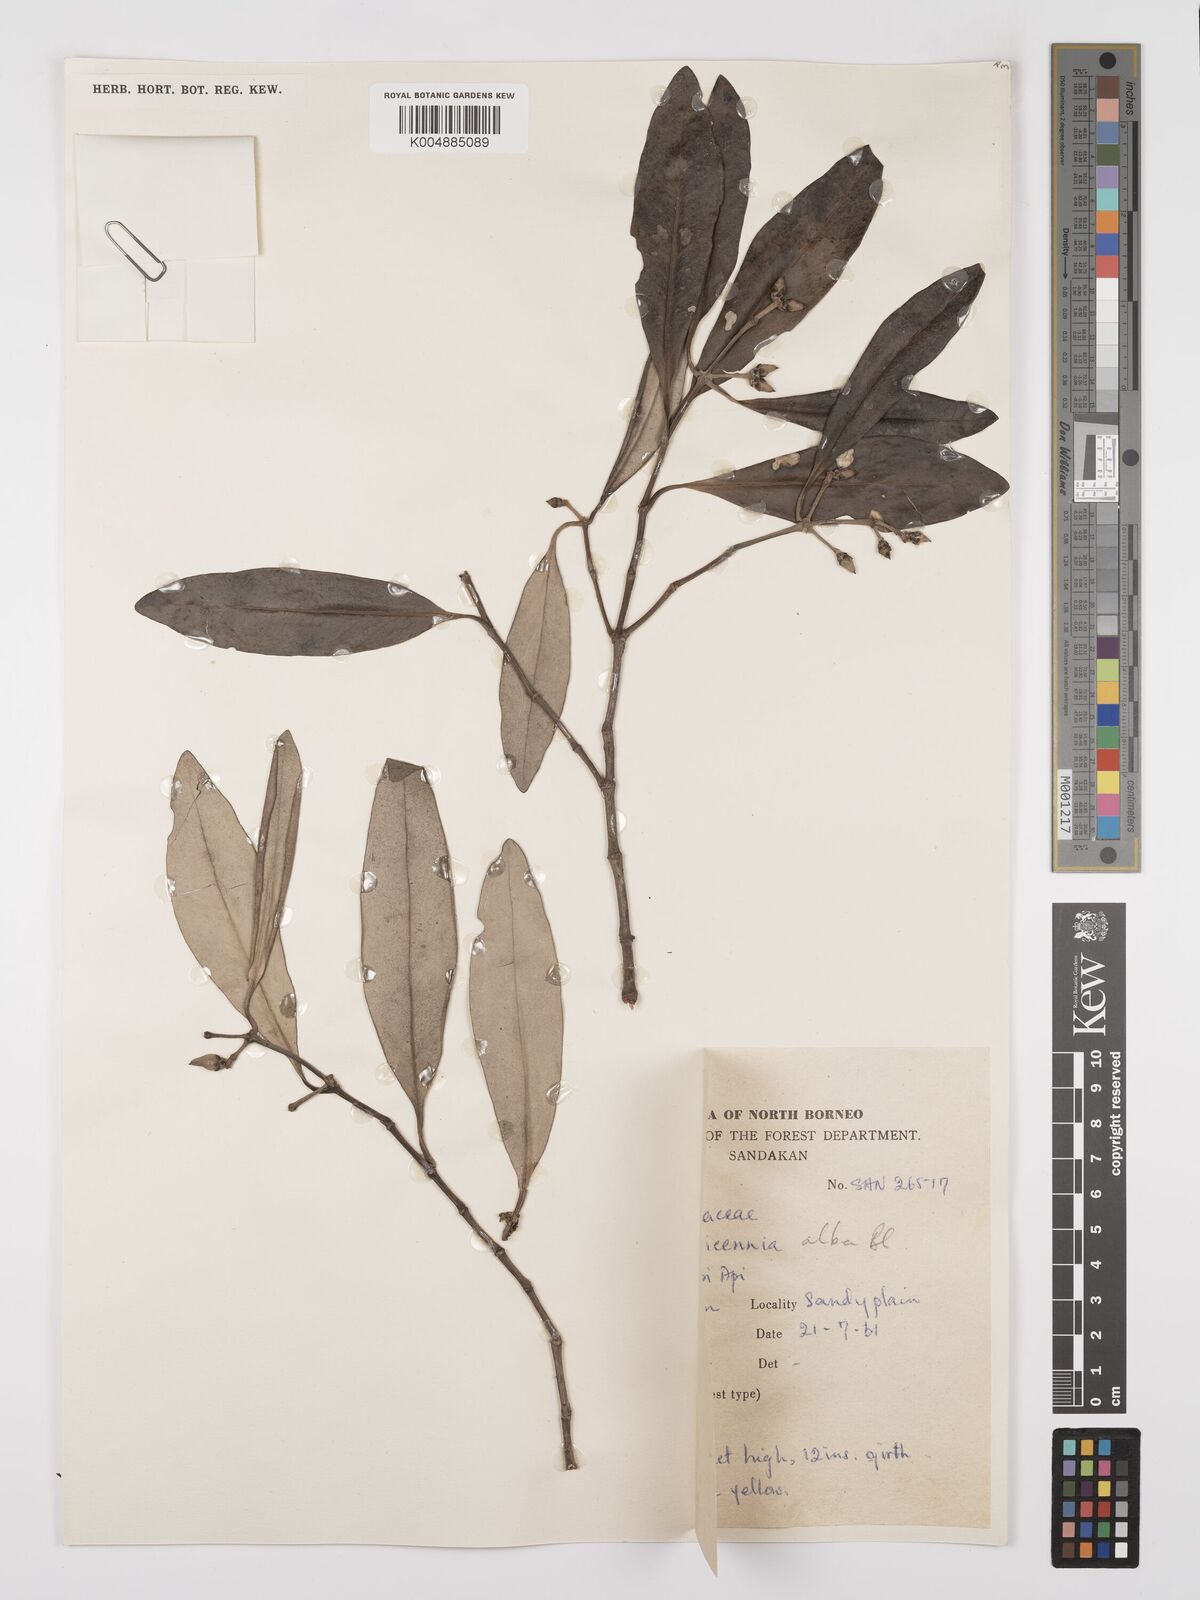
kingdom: Plantae
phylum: Tracheophyta
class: Magnoliopsida
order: Lamiales
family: Acanthaceae
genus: Avicennia
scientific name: Avicennia alba
